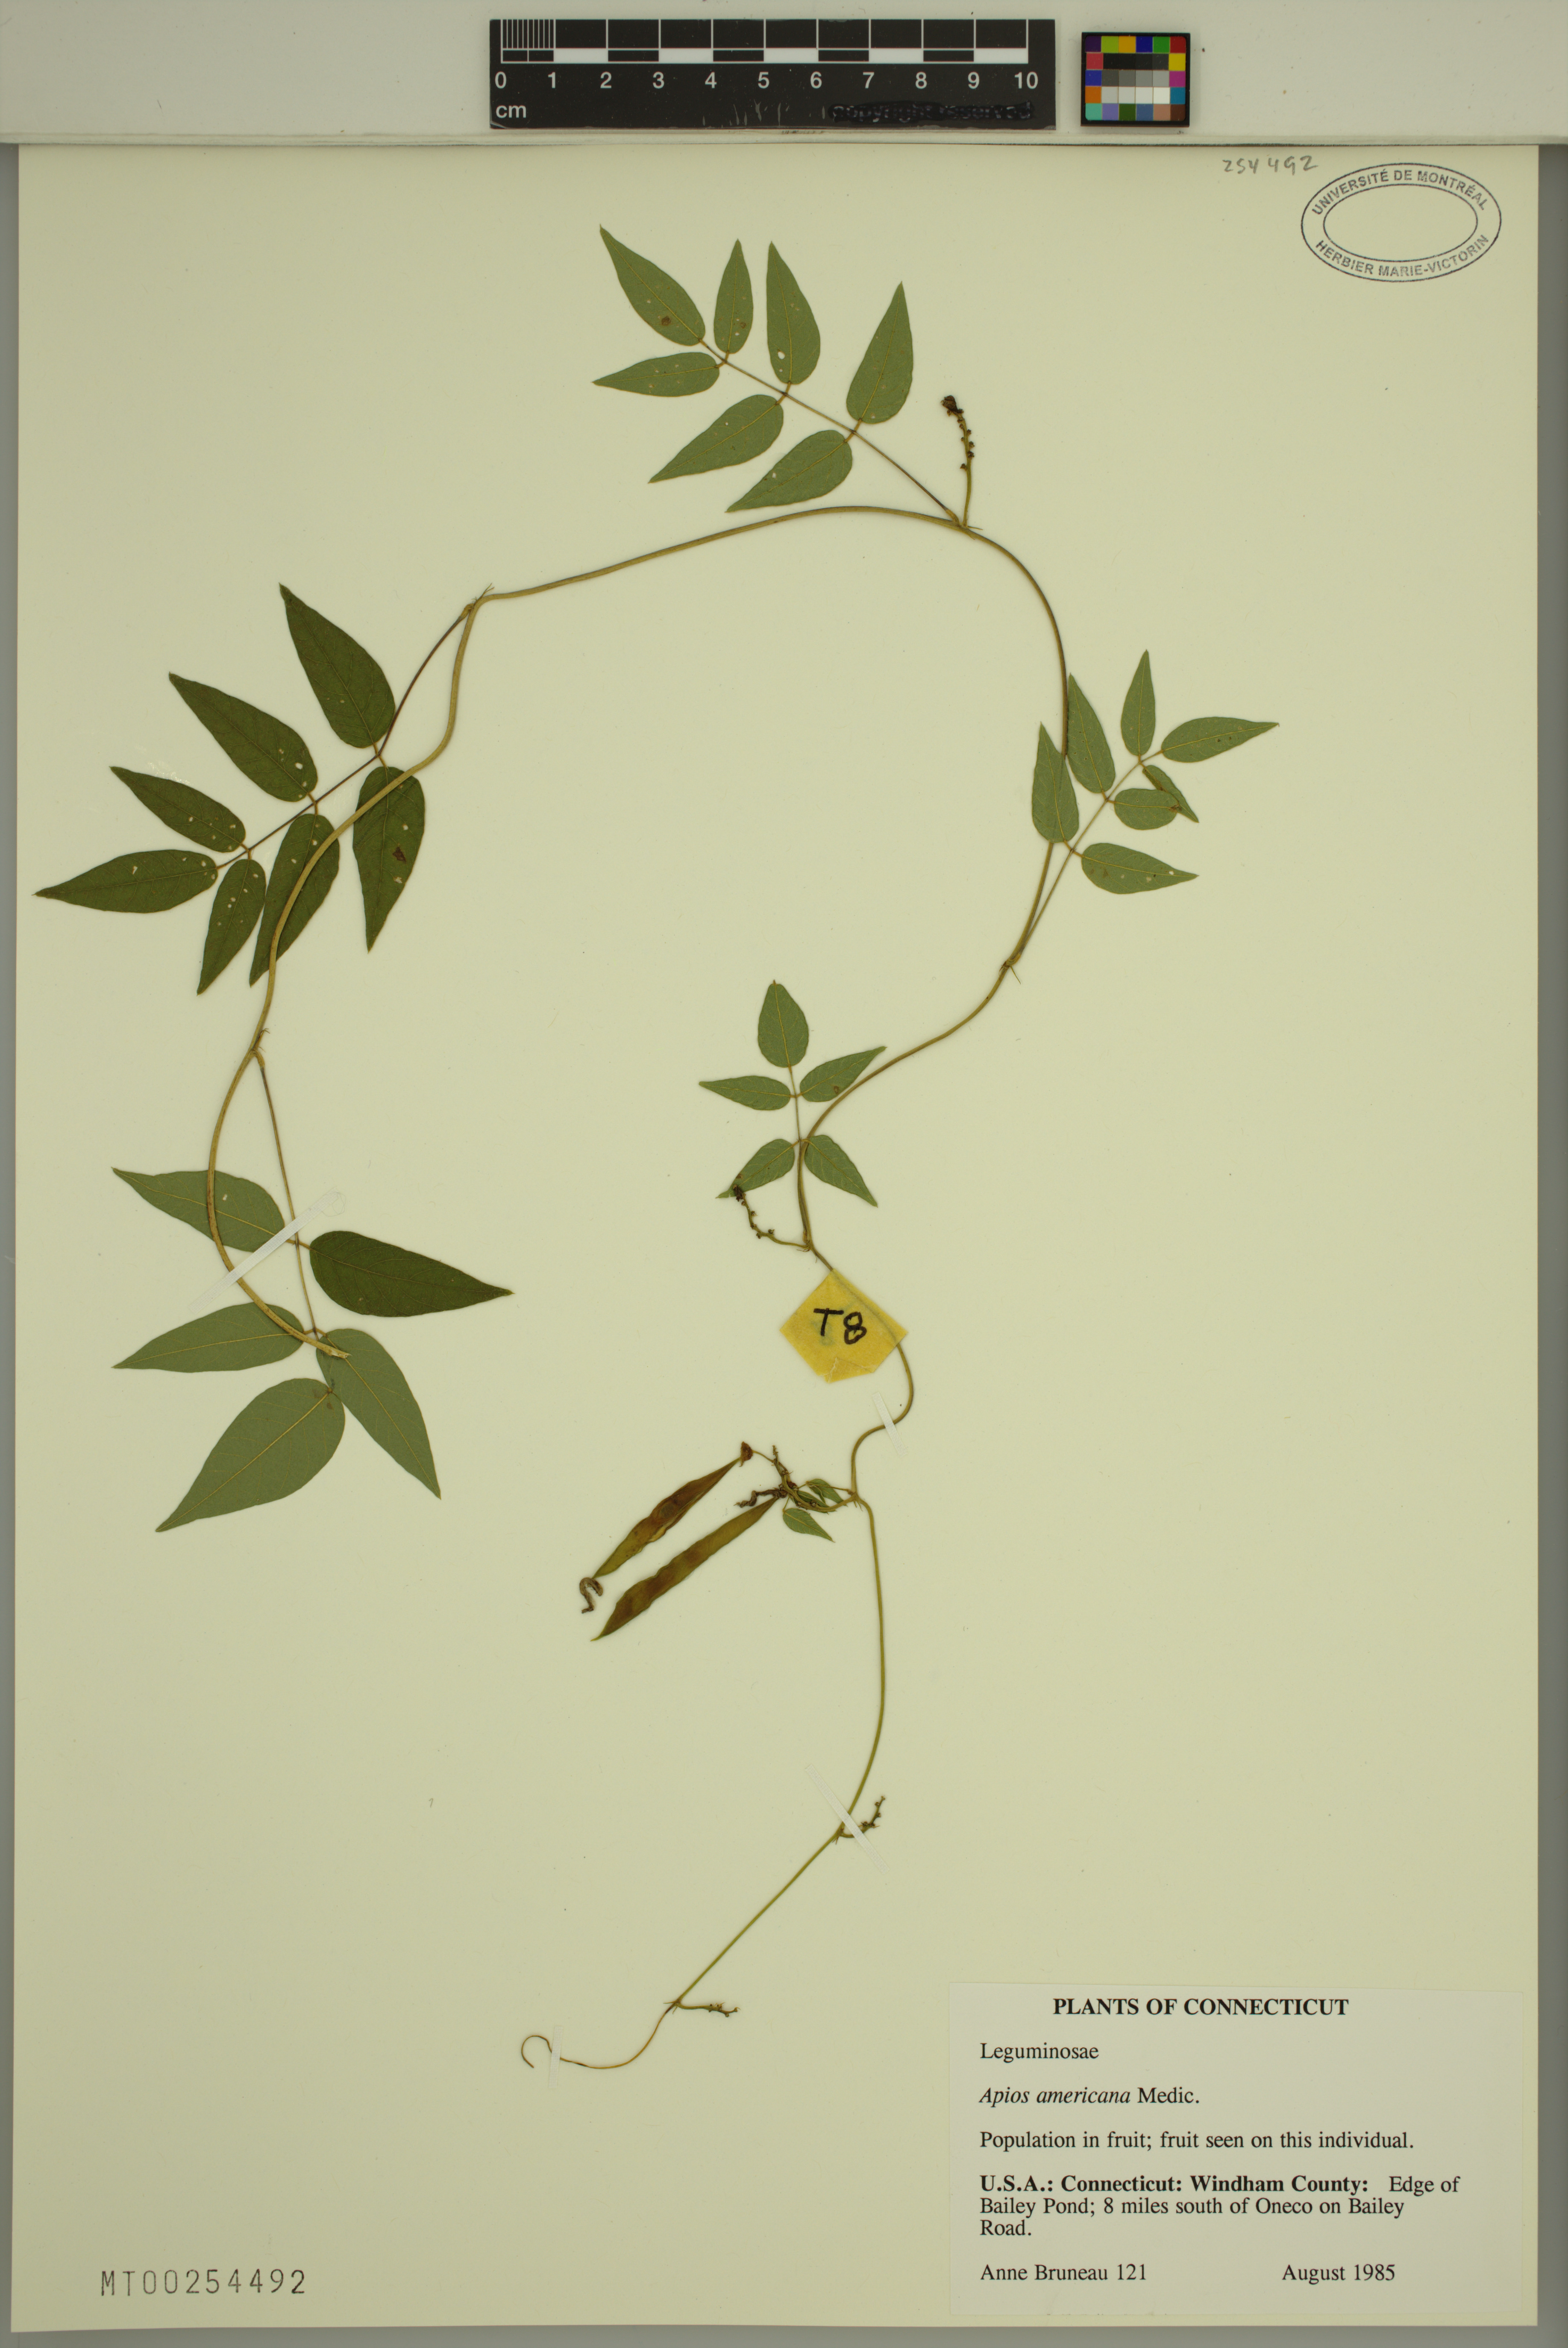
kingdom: Plantae
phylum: Tracheophyta
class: Magnoliopsida
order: Fabales
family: Fabaceae
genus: Apios
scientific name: Apios americana
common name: American potato-bean
